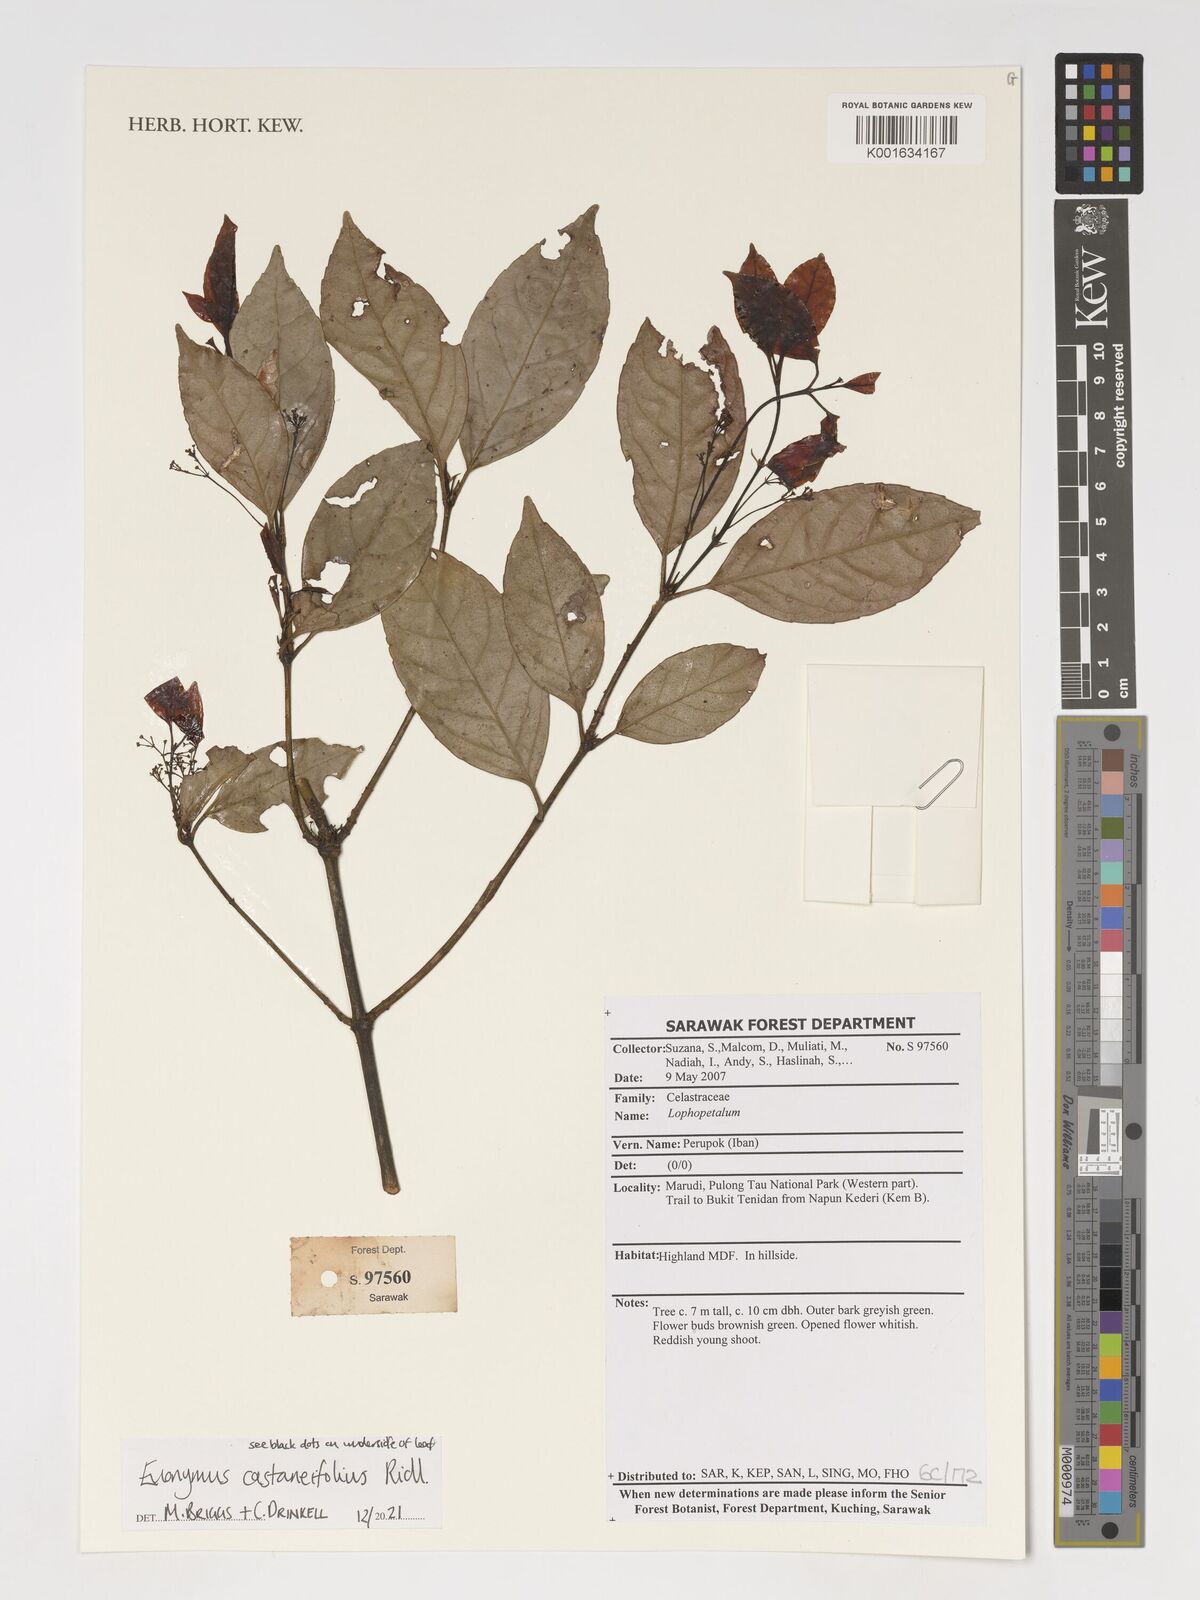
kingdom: Plantae
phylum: Tracheophyta
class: Magnoliopsida
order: Celastrales
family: Celastraceae
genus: Euonymus
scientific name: Euonymus castaneifolius
